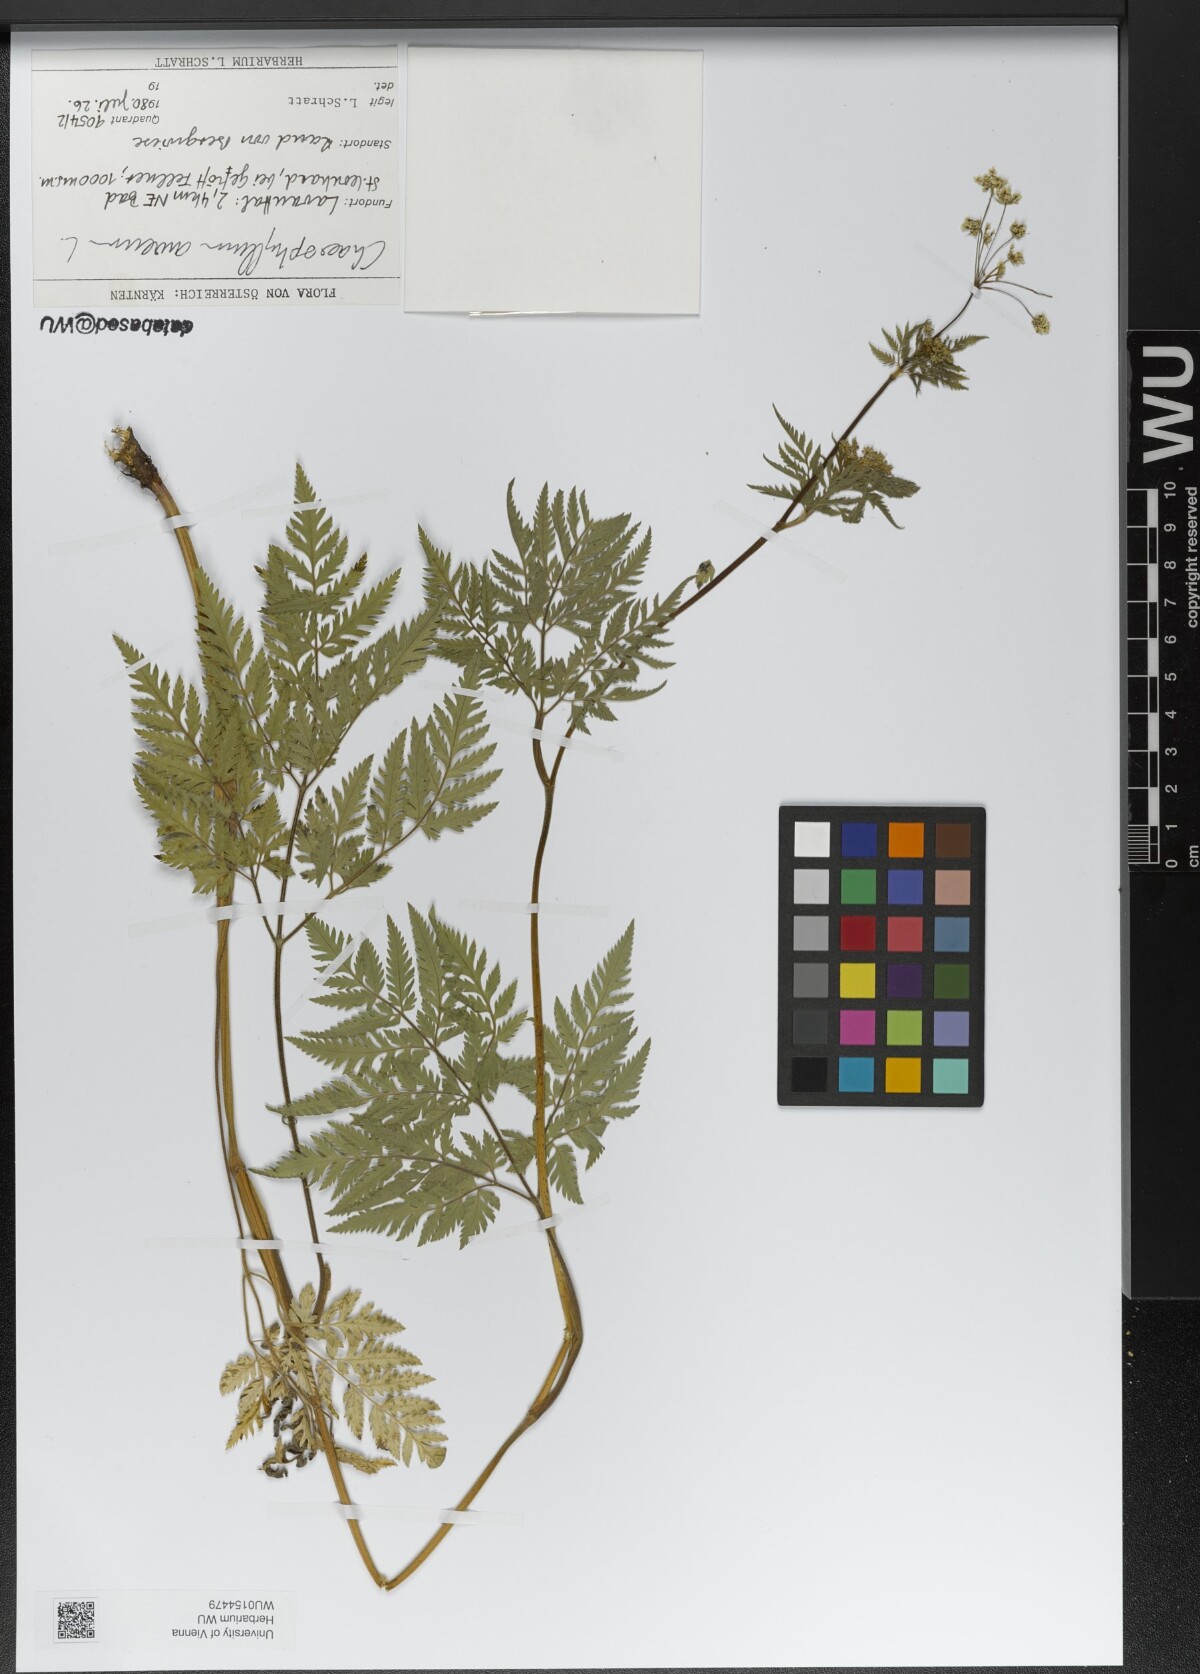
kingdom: Plantae
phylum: Tracheophyta
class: Magnoliopsida
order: Apiales
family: Apiaceae
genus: Chaerophyllum
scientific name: Chaerophyllum aureum
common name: Golden chervil
